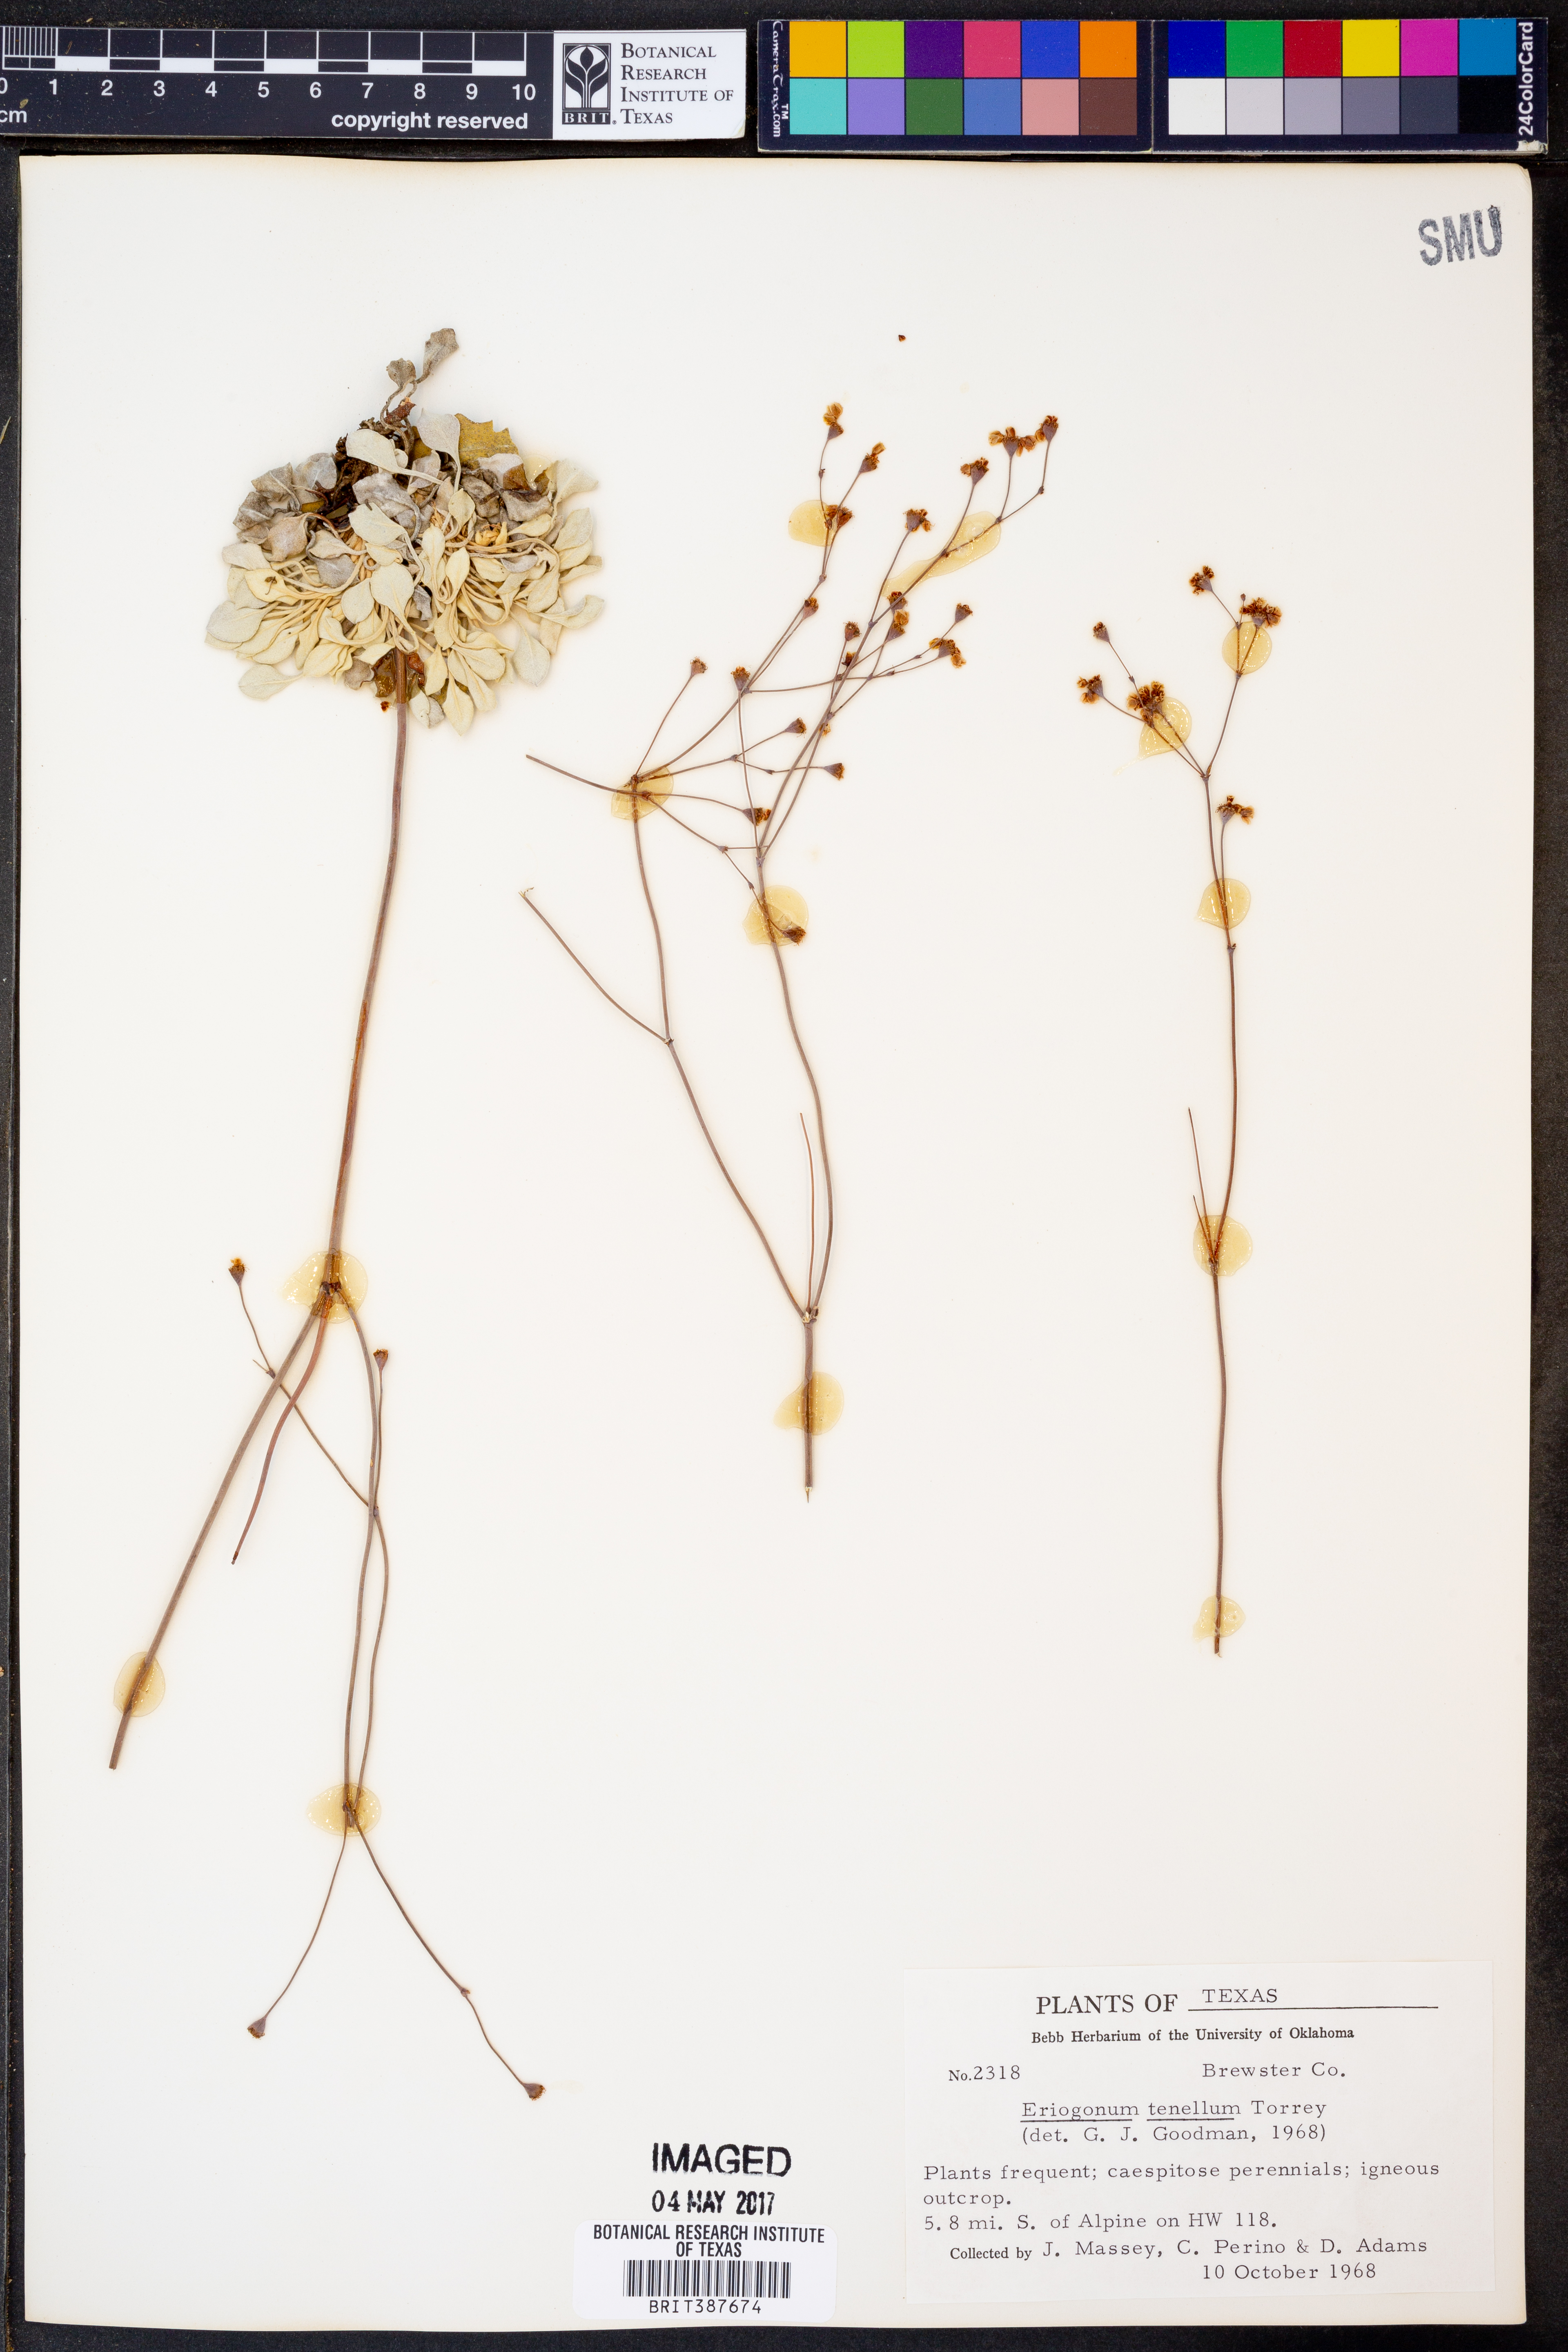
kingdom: Plantae
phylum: Tracheophyta
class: Magnoliopsida
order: Caryophyllales
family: Polygonaceae
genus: Eriogonum
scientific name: Eriogonum tenellum
